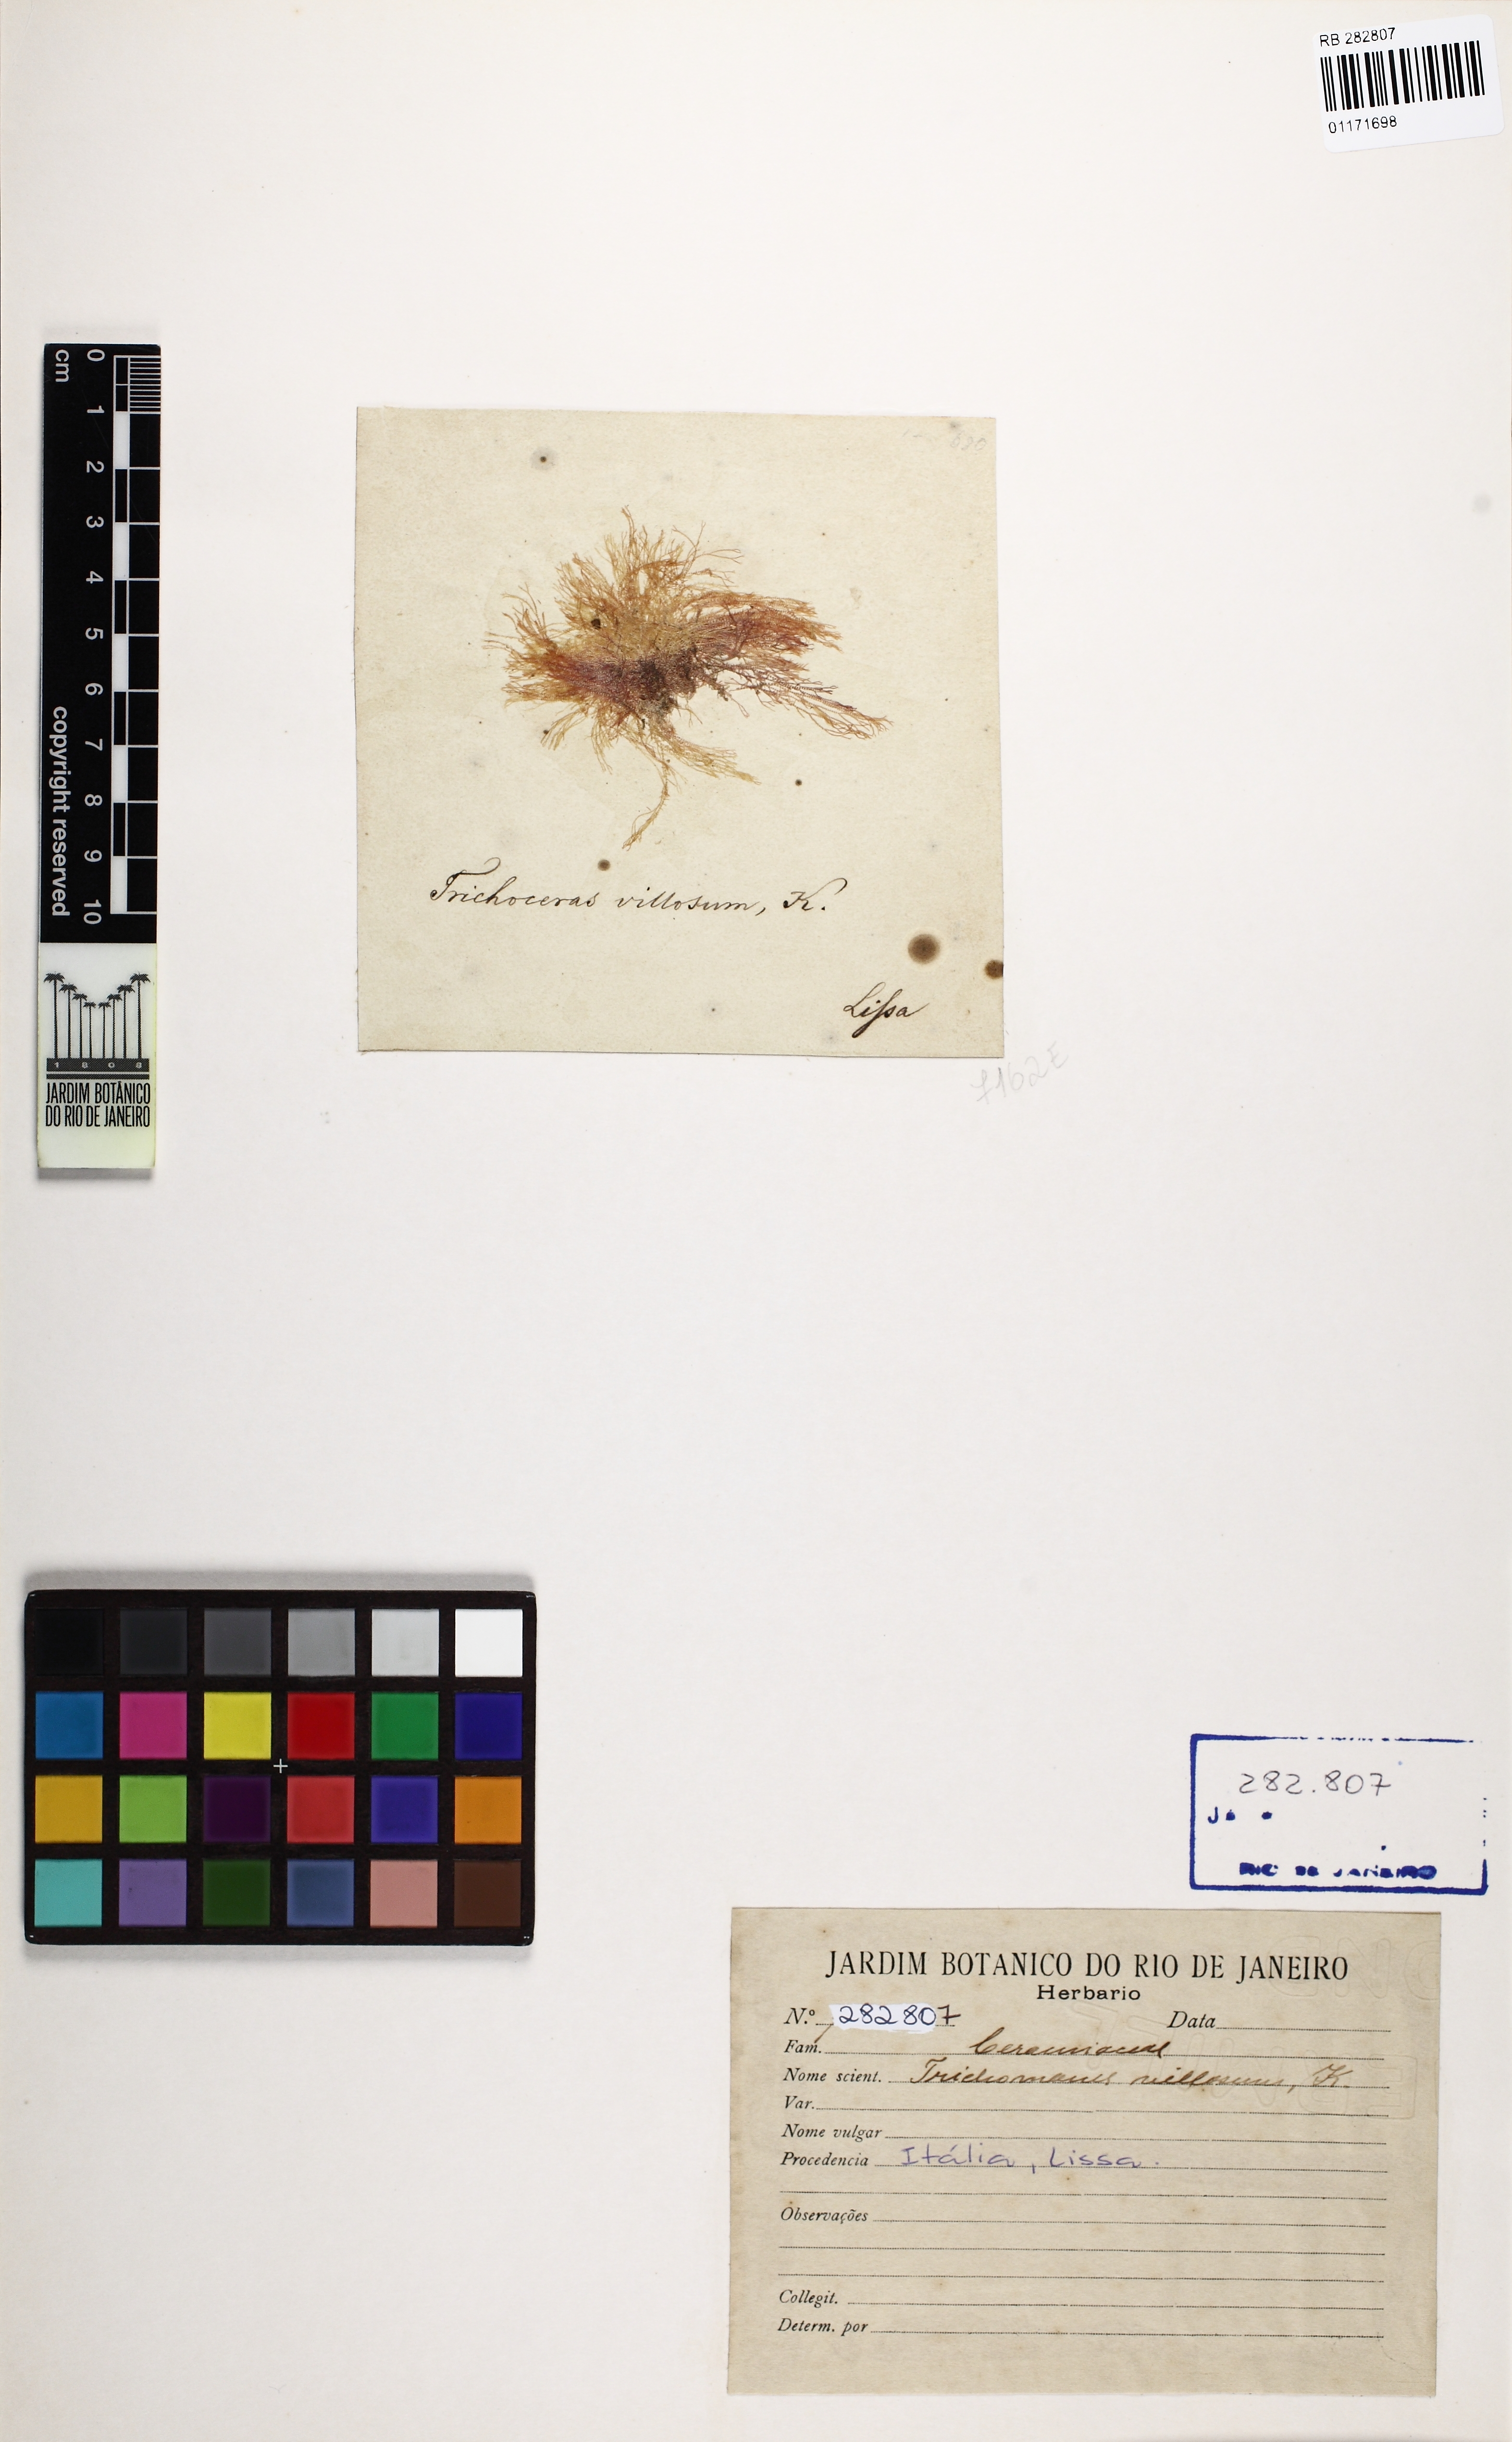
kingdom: Plantae
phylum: Rhodophyta
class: Florideophyceae
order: Ceramiales
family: Ceramiaceae
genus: Trichoceras
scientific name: Trichoceras
